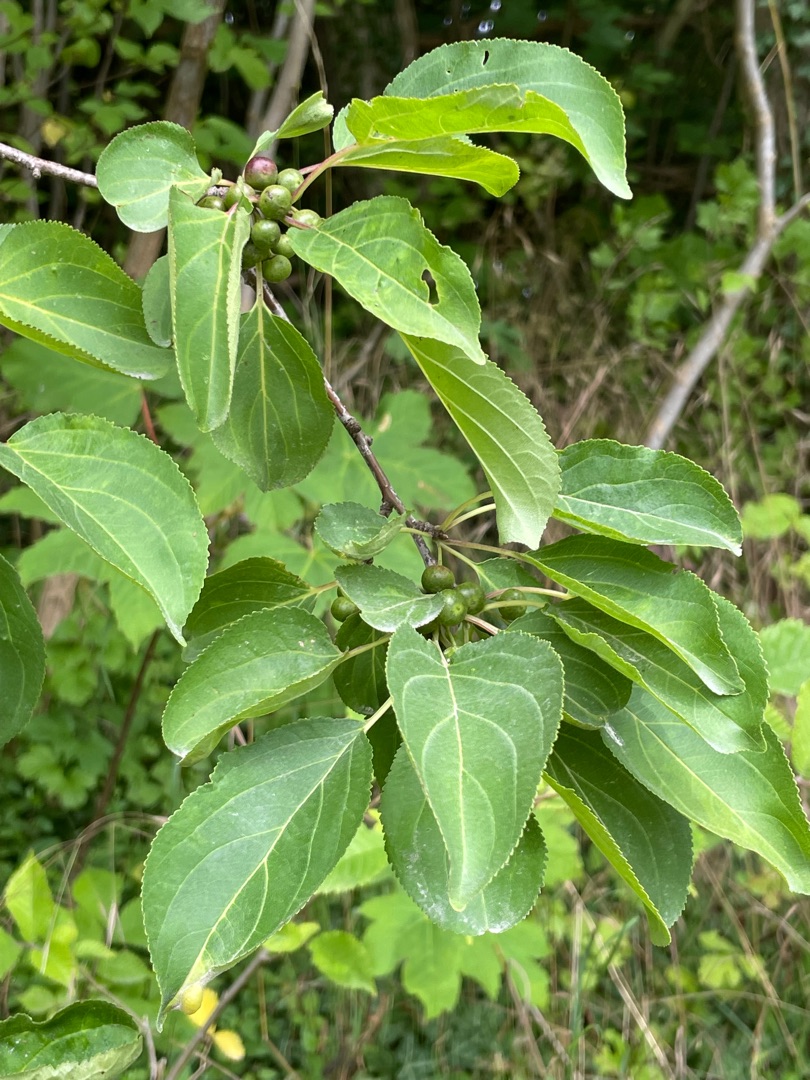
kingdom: Plantae
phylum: Tracheophyta
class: Magnoliopsida
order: Rosales
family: Rhamnaceae
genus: Rhamnus
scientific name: Rhamnus cathartica
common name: Vrietorn
